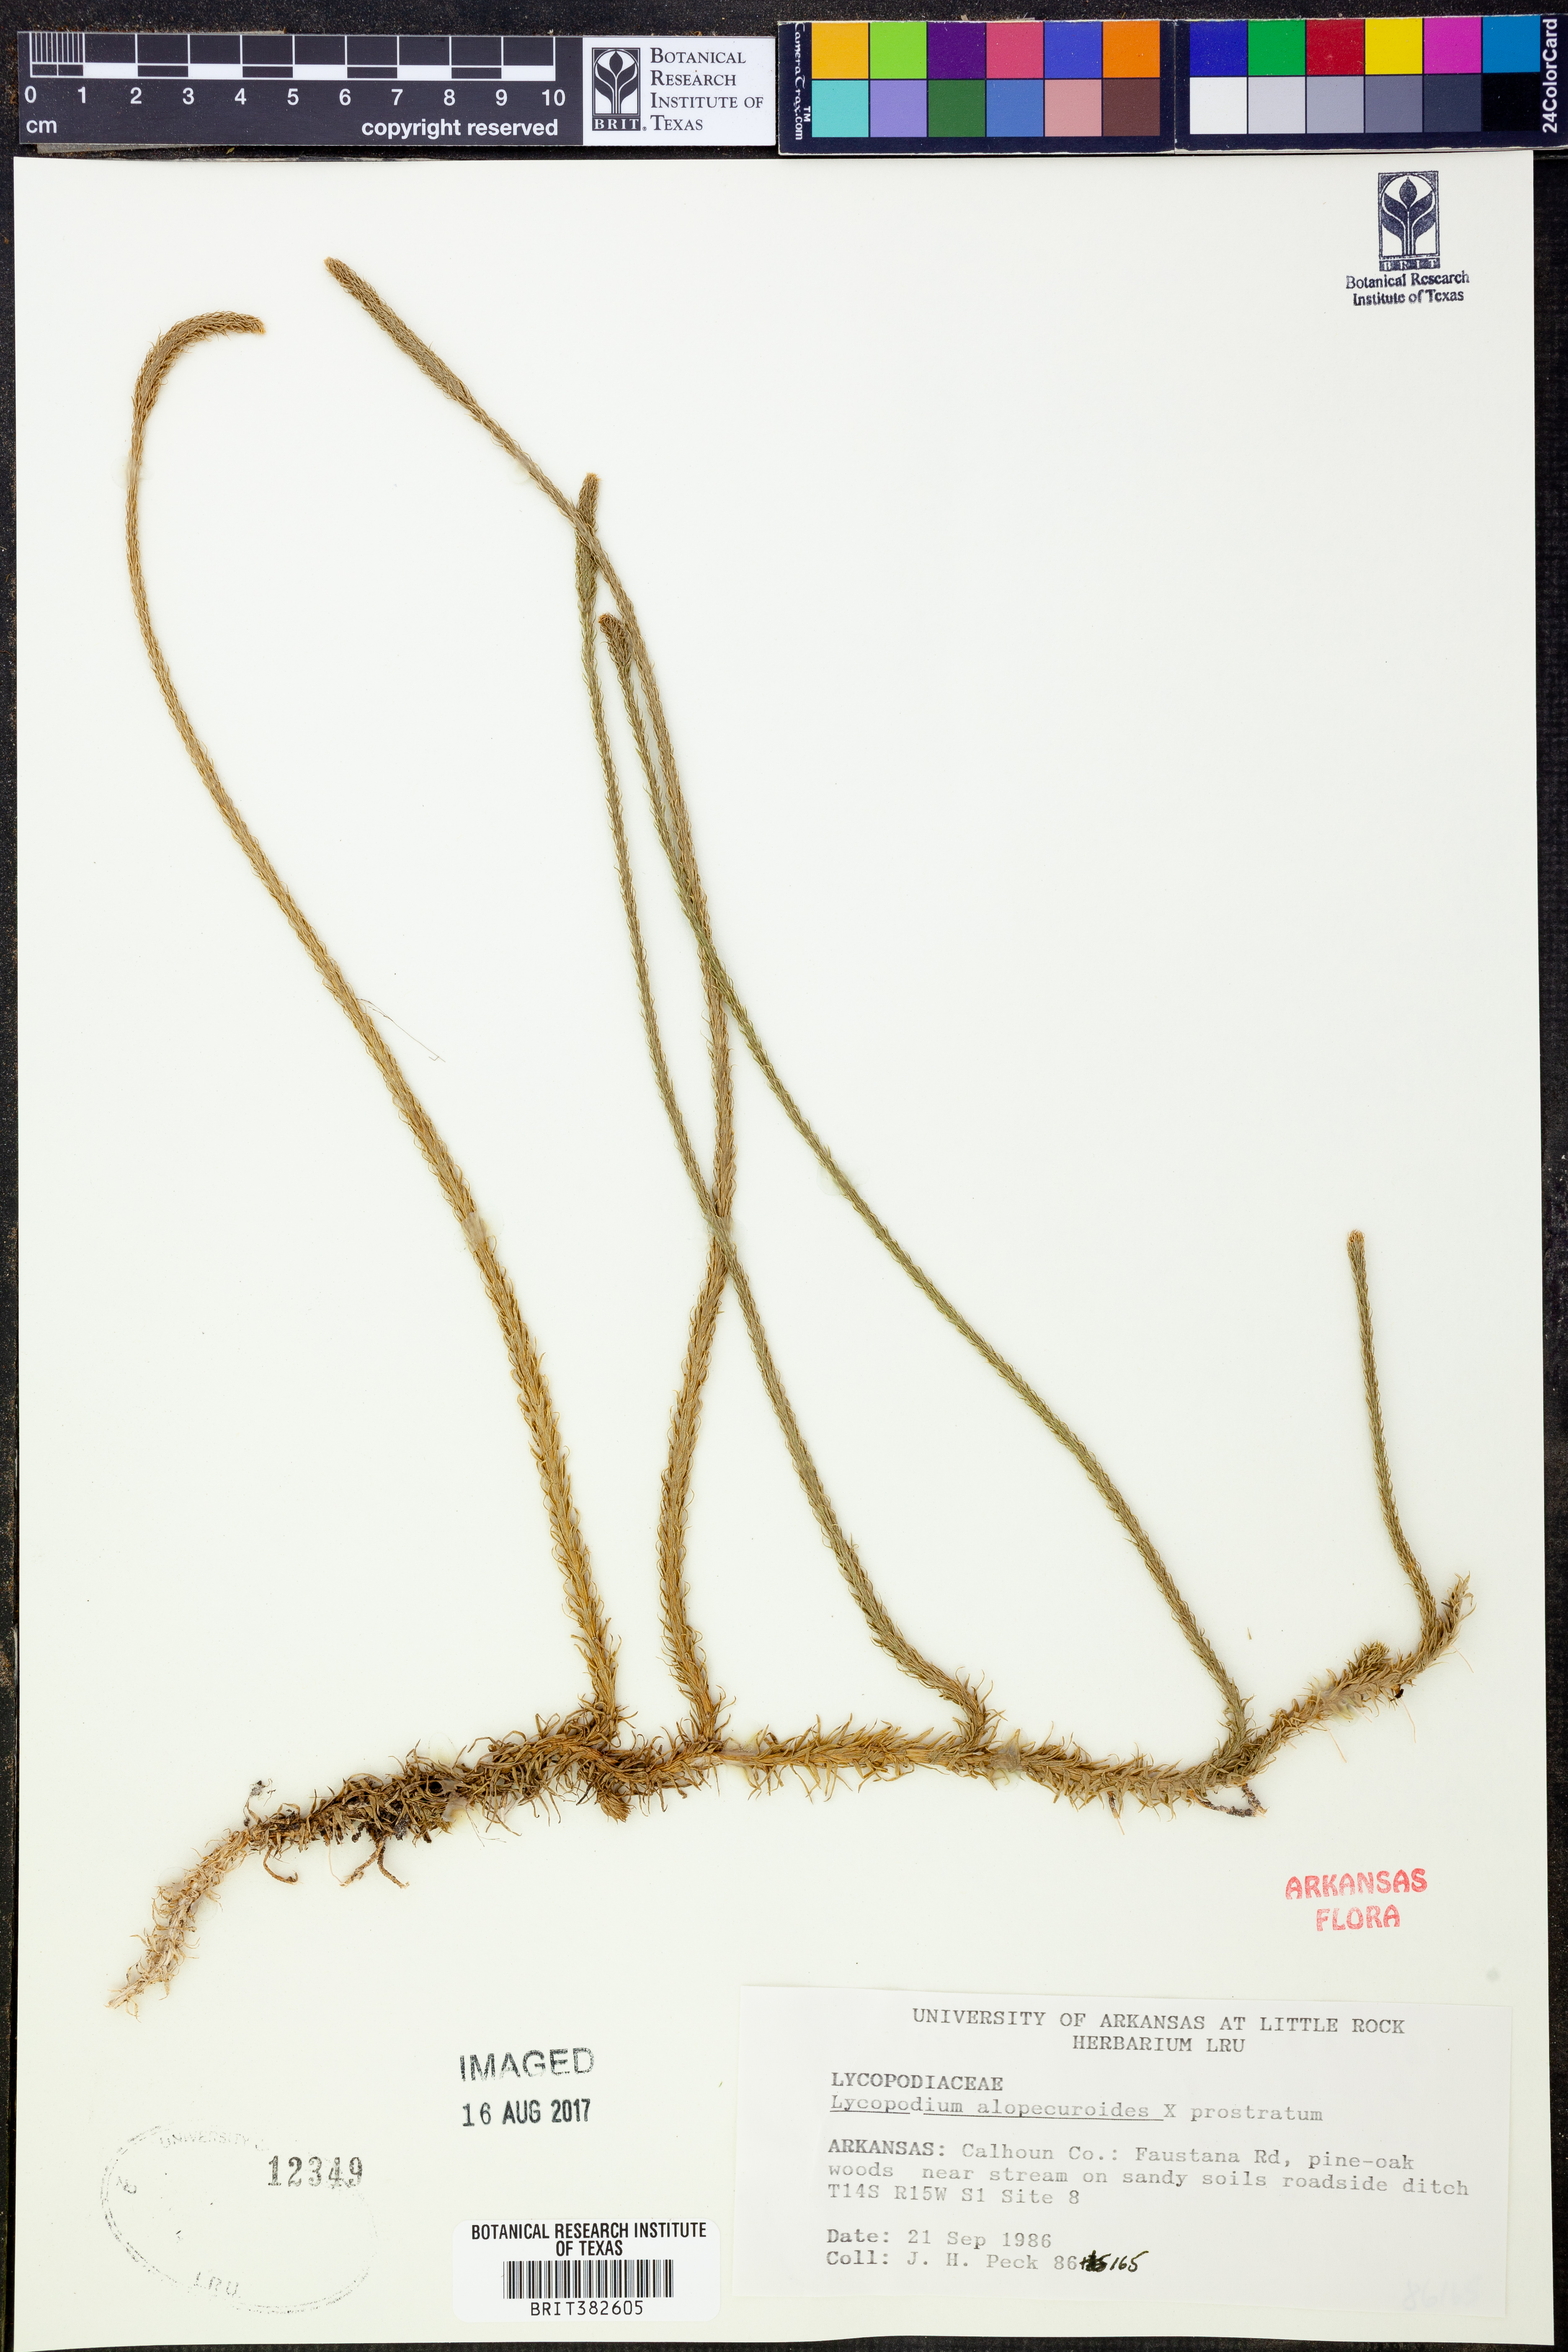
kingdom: Plantae
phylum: Tracheophyta
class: Lycopodiopsida
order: Lycopodiales
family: Lycopodiaceae
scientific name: Lycopodiaceae
